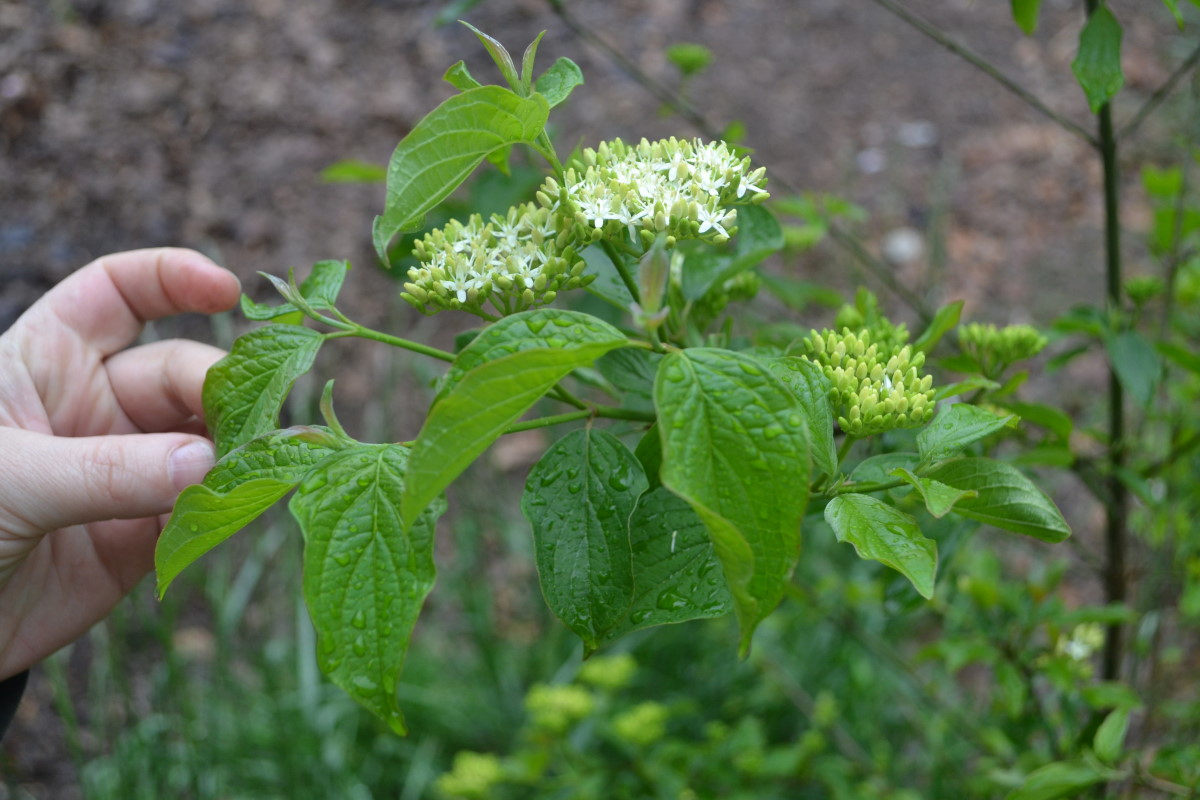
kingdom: Plantae
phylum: Tracheophyta
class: Magnoliopsida
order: Cornales
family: Cornaceae
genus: Cornus
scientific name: Cornus alba
